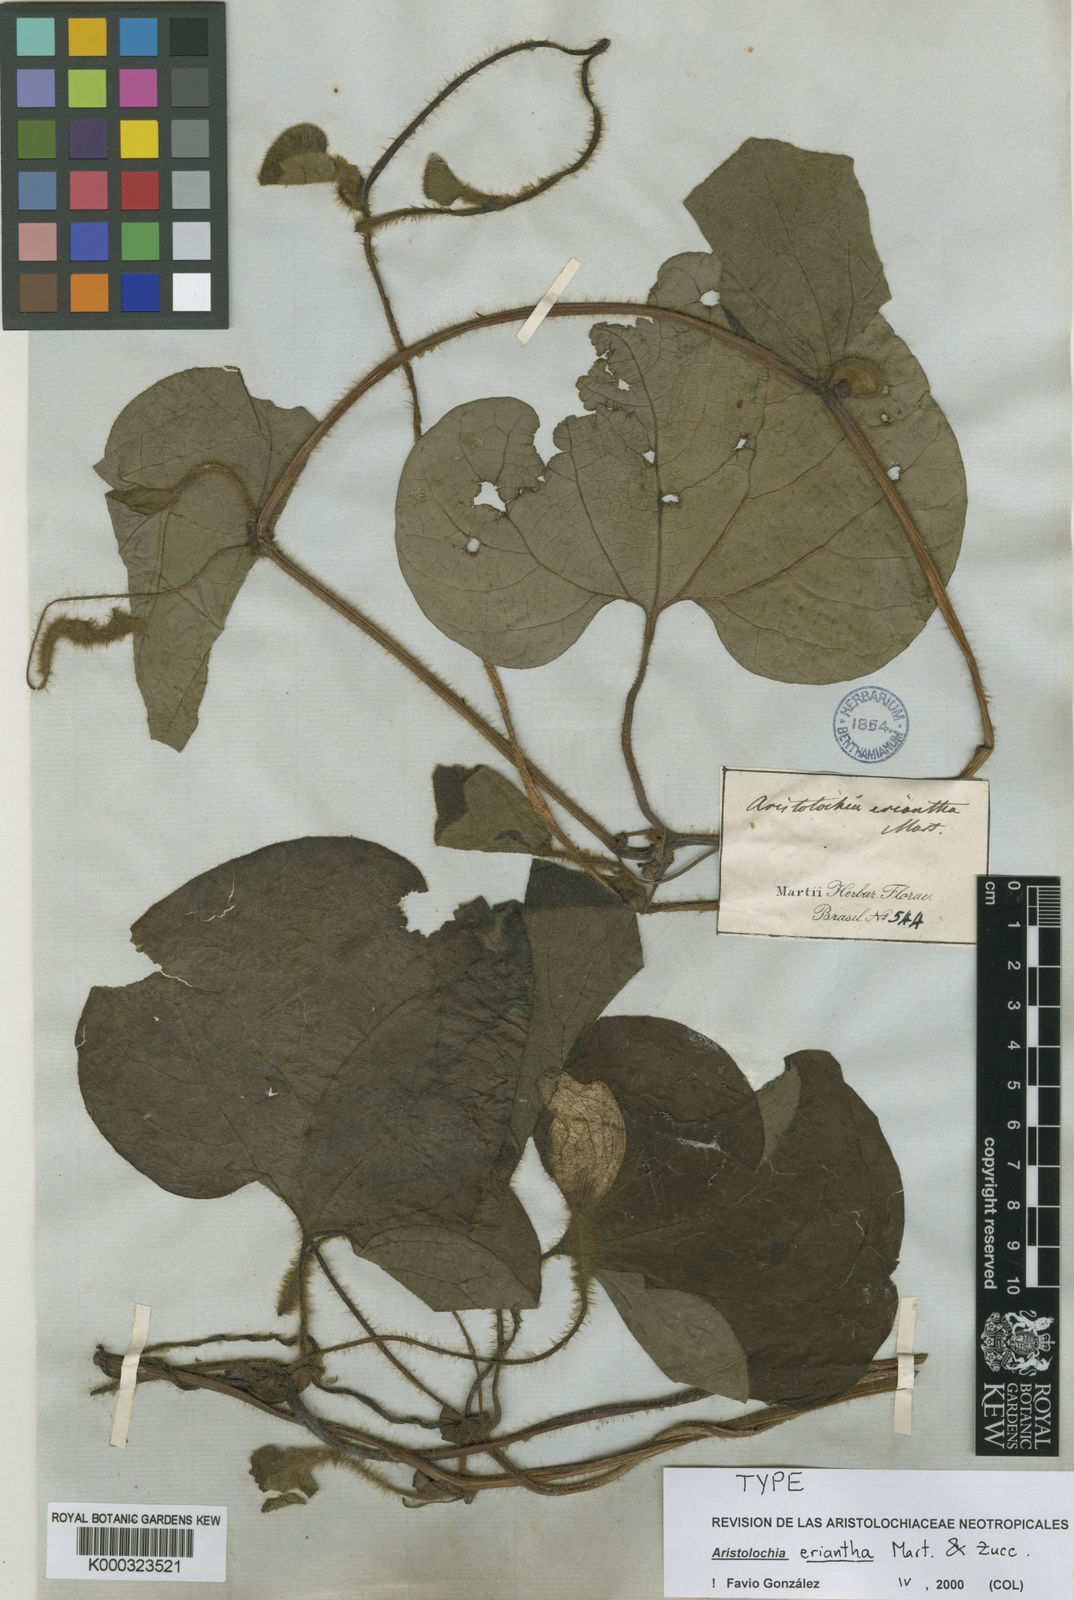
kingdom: Plantae
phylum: Tracheophyta
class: Magnoliopsida
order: Piperales
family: Aristolochiaceae
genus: Aristolochia
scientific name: Aristolochia eriantha
